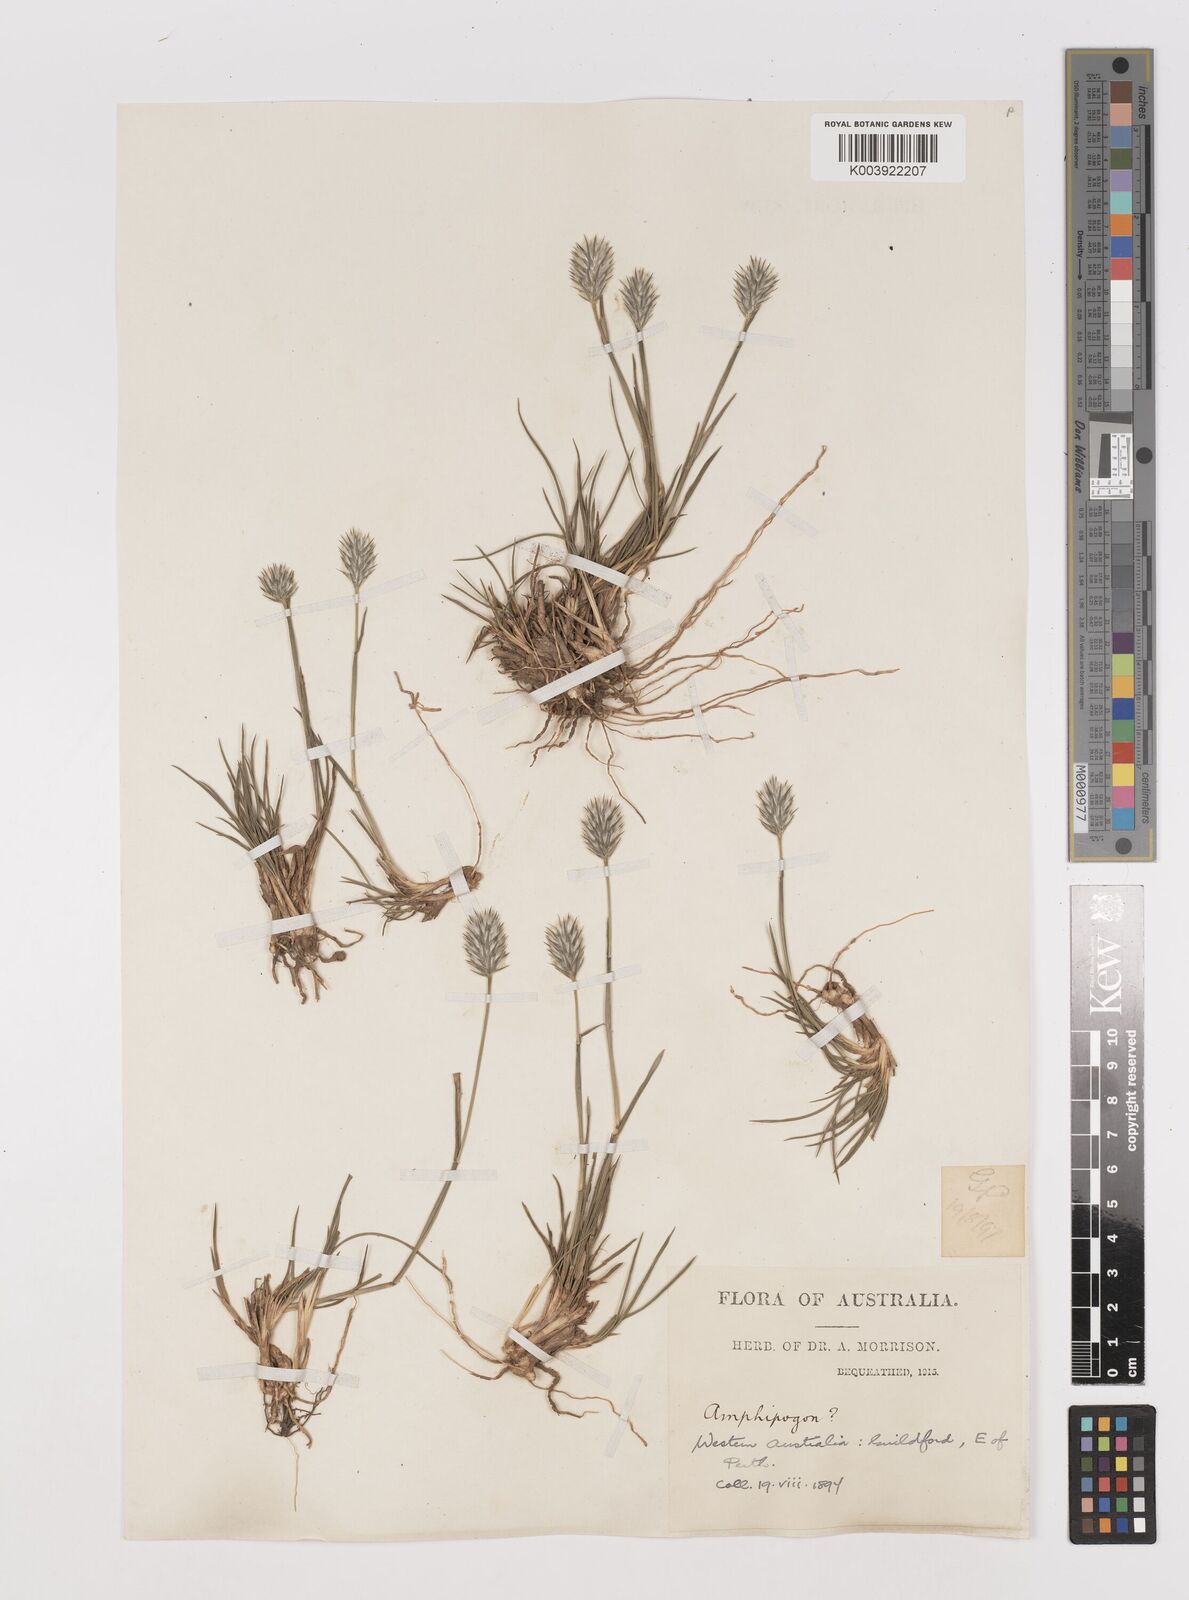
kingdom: Plantae
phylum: Tracheophyta
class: Liliopsida
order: Poales
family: Poaceae
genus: Neurachne
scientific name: Neurachne alopecuroidea
